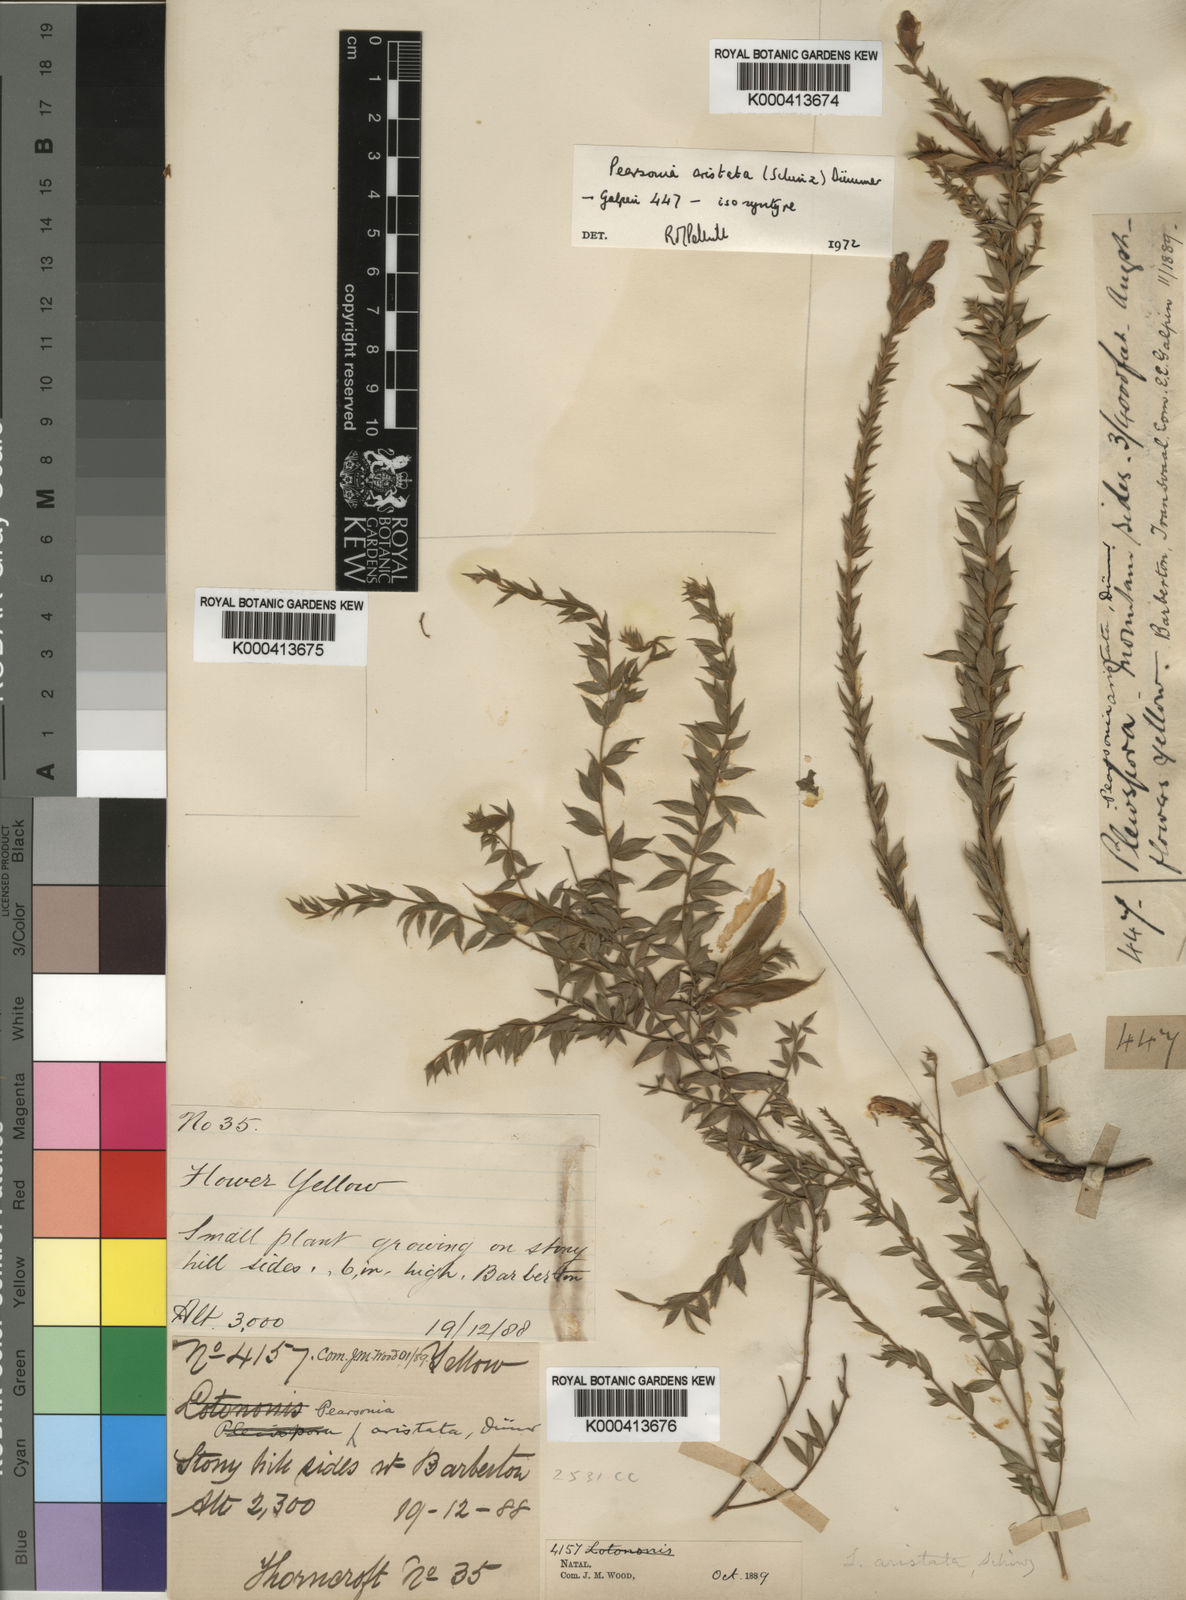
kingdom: Plantae
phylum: Tracheophyta
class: Magnoliopsida
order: Fabales
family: Fabaceae
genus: Pearsonia
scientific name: Pearsonia aristata
